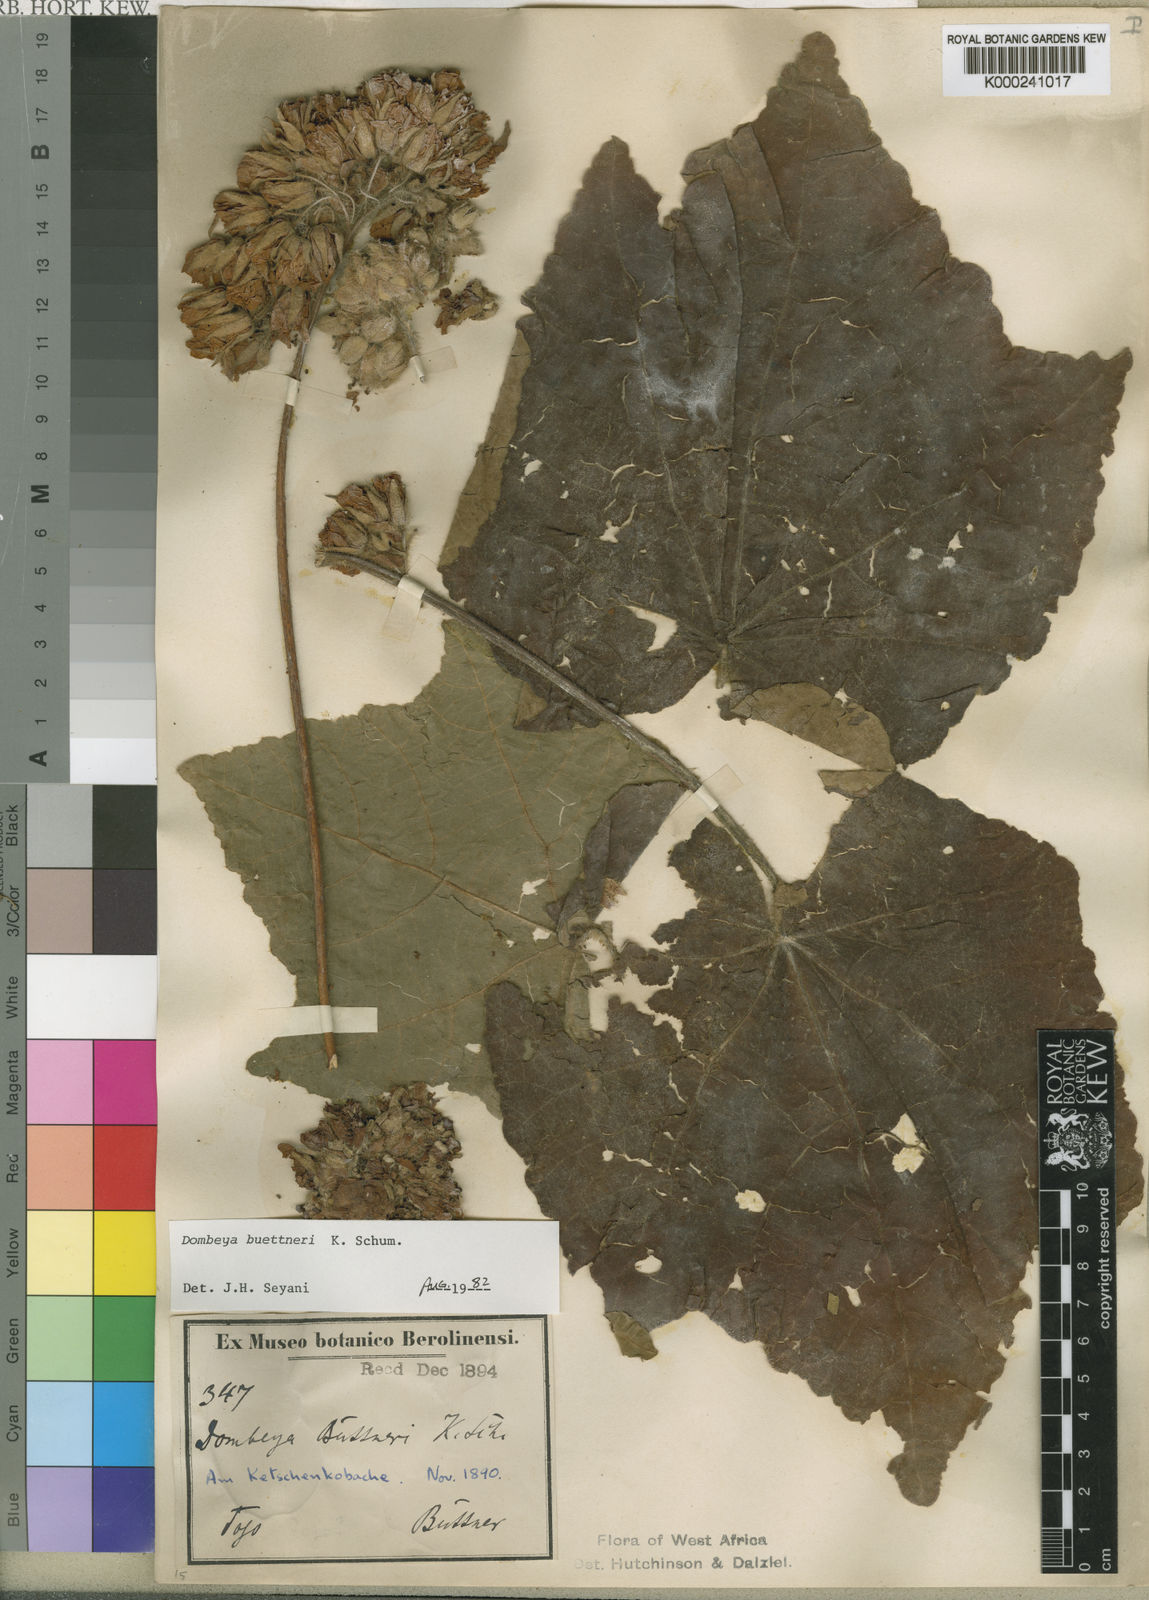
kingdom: Plantae
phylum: Tracheophyta
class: Magnoliopsida
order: Malvales
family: Malvaceae
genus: Dombeya
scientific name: Dombeya buettneri
